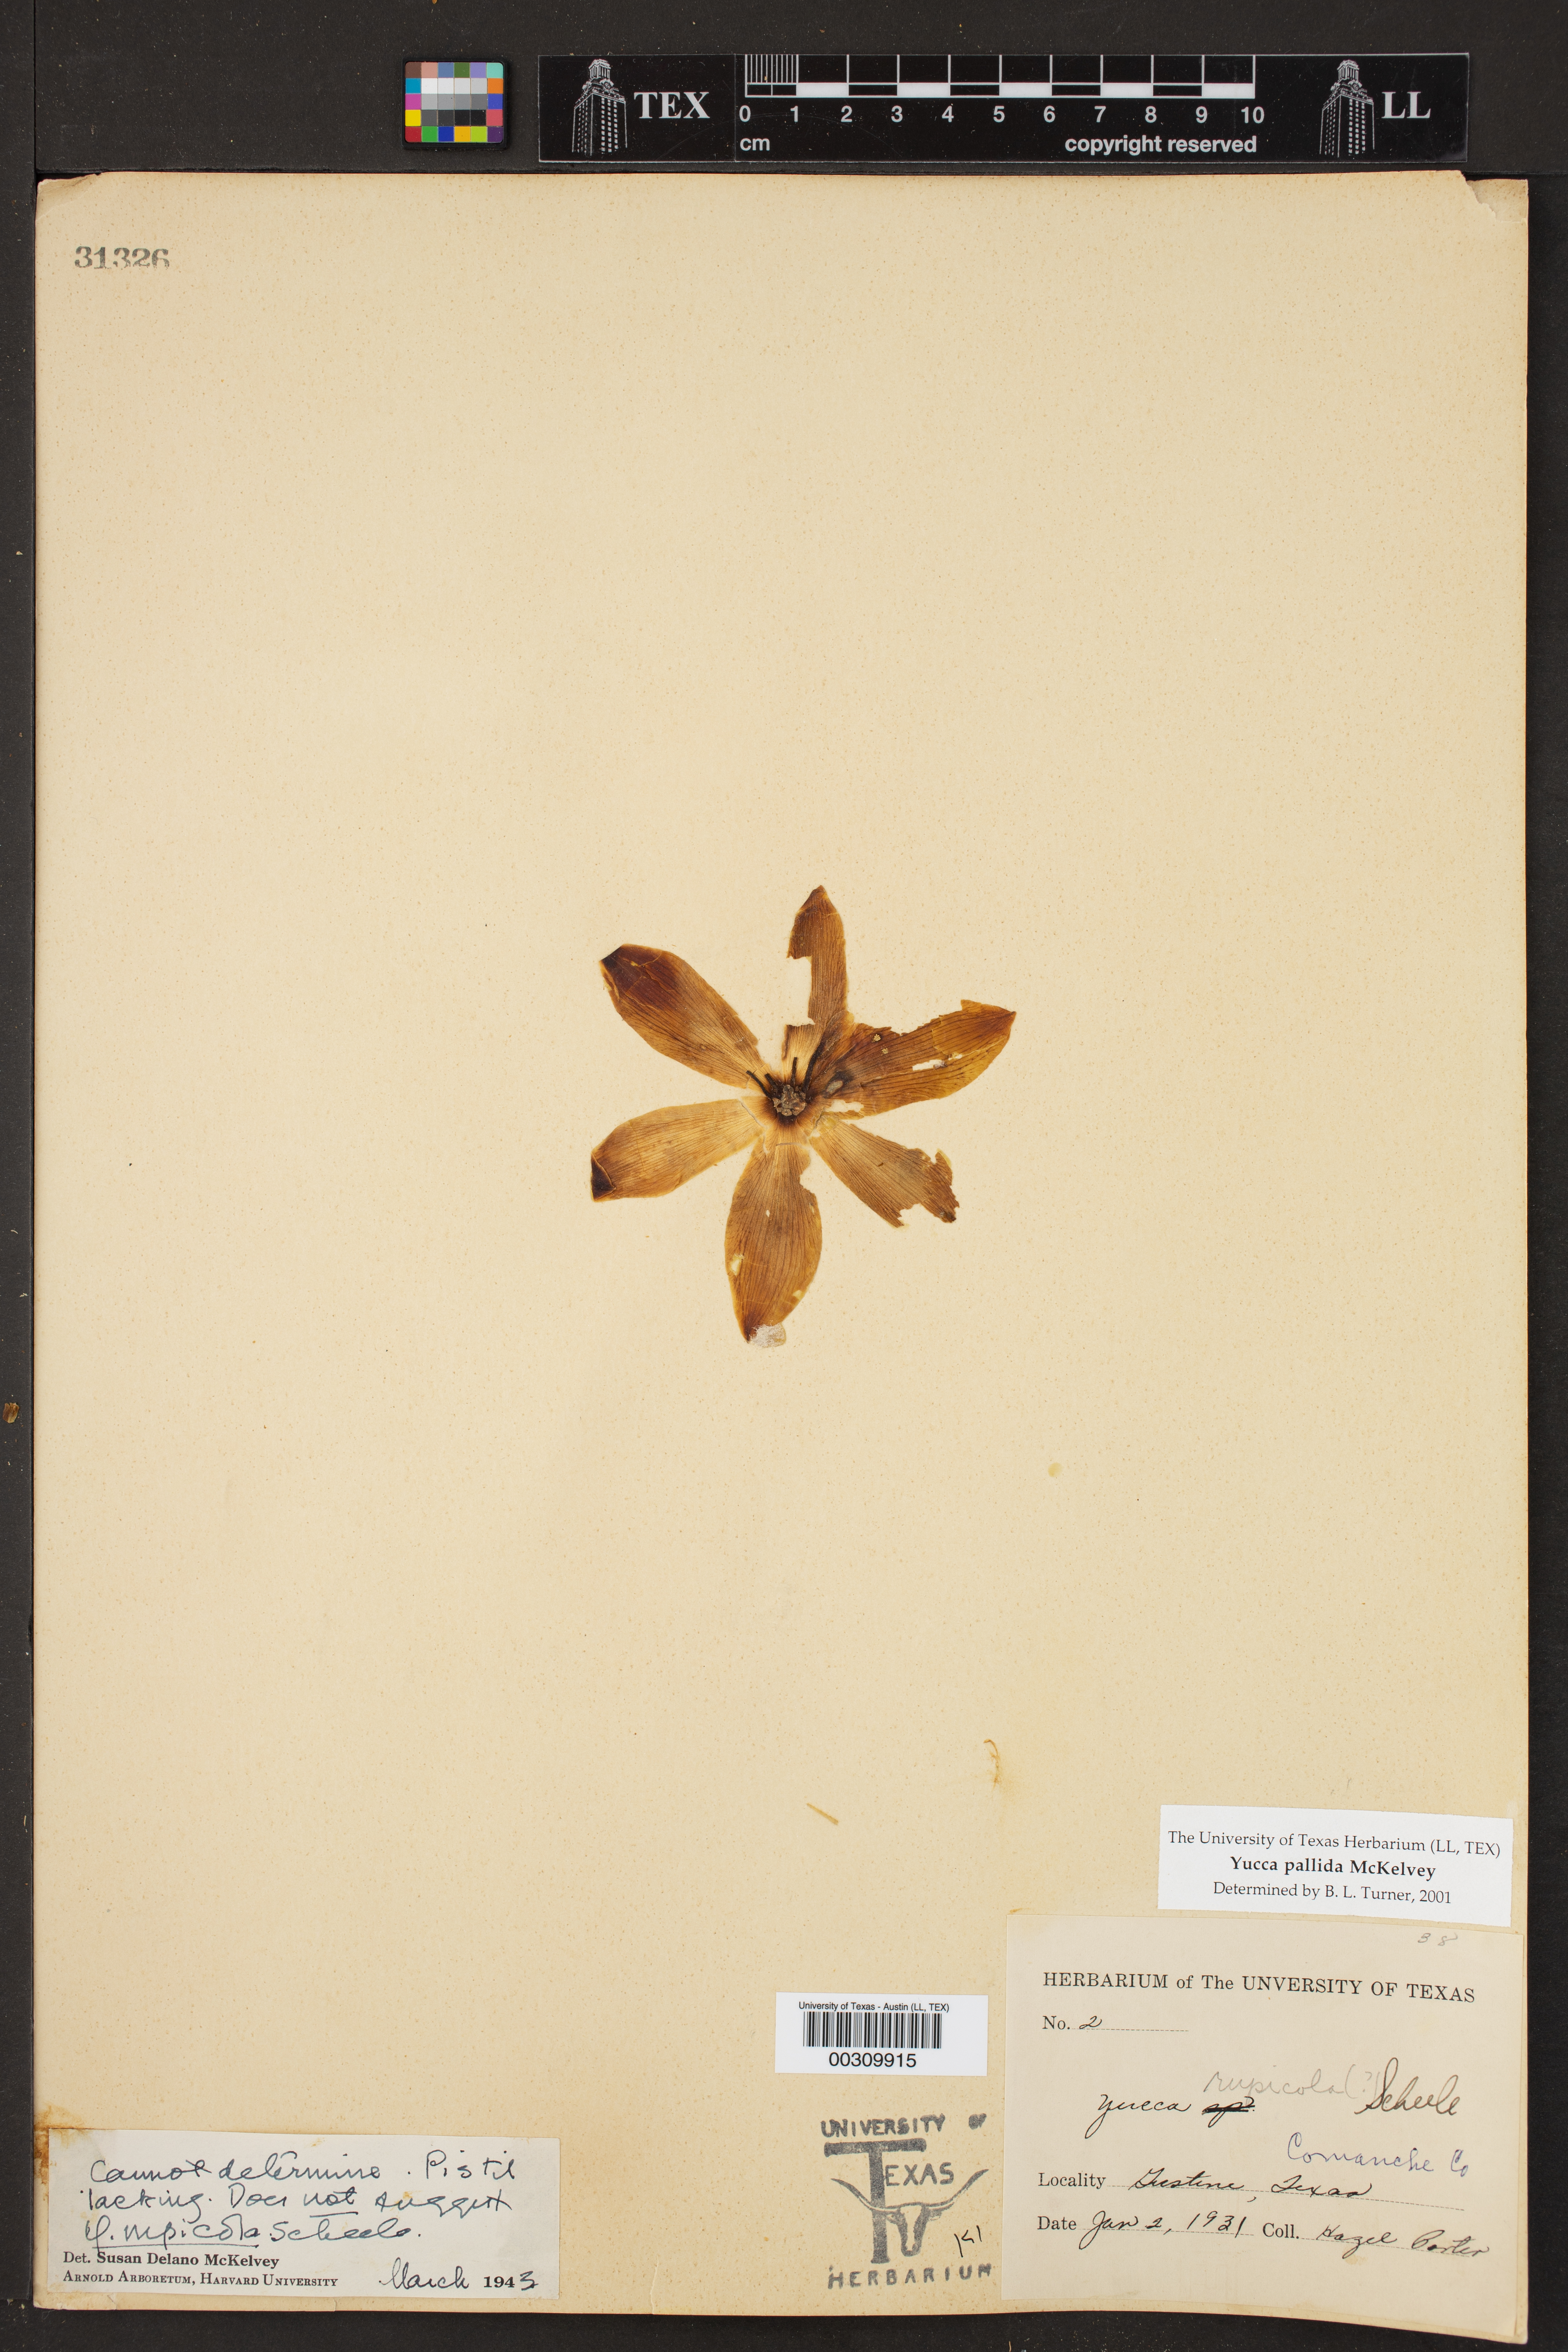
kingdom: Plantae
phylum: Tracheophyta
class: Liliopsida
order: Asparagales
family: Asparagaceae
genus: Yucca
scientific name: Yucca pallida
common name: Pale leaf yucca
